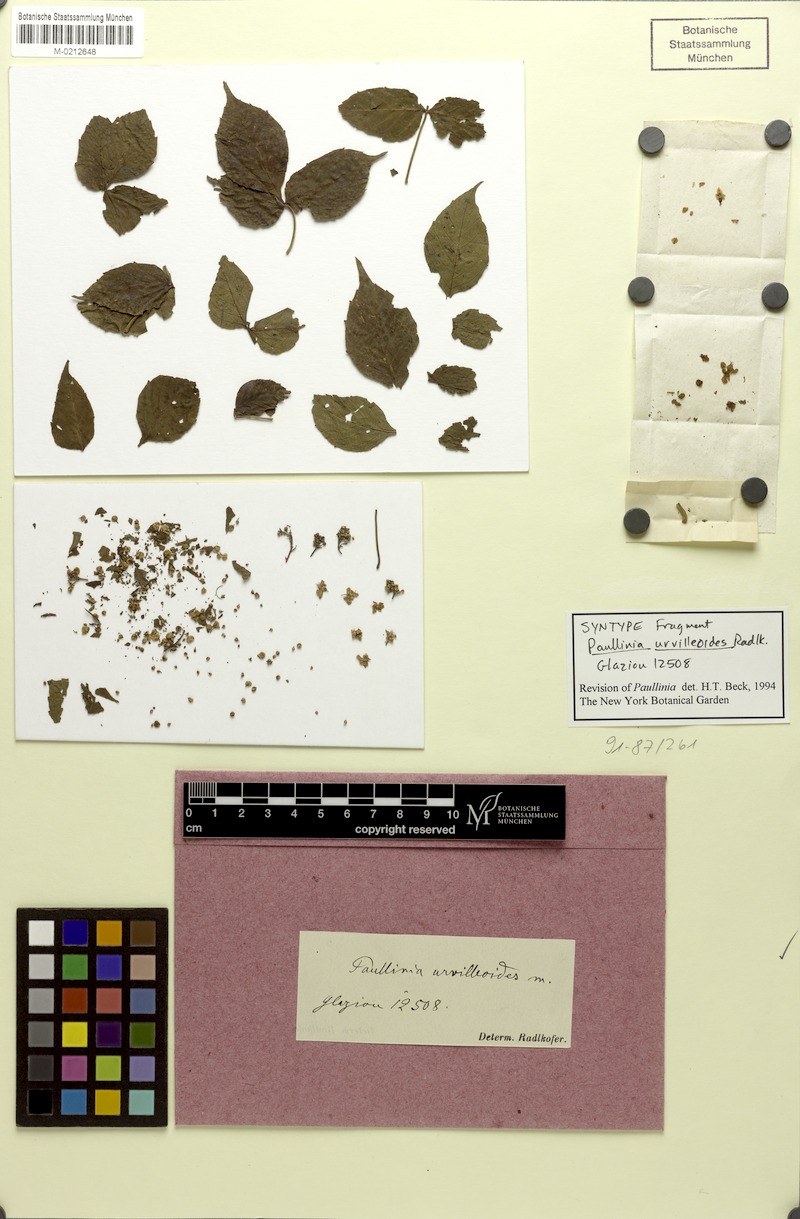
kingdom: Plantae
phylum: Tracheophyta
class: Magnoliopsida
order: Sapindales
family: Sapindaceae
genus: Serjania
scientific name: Serjania urvilleoides
